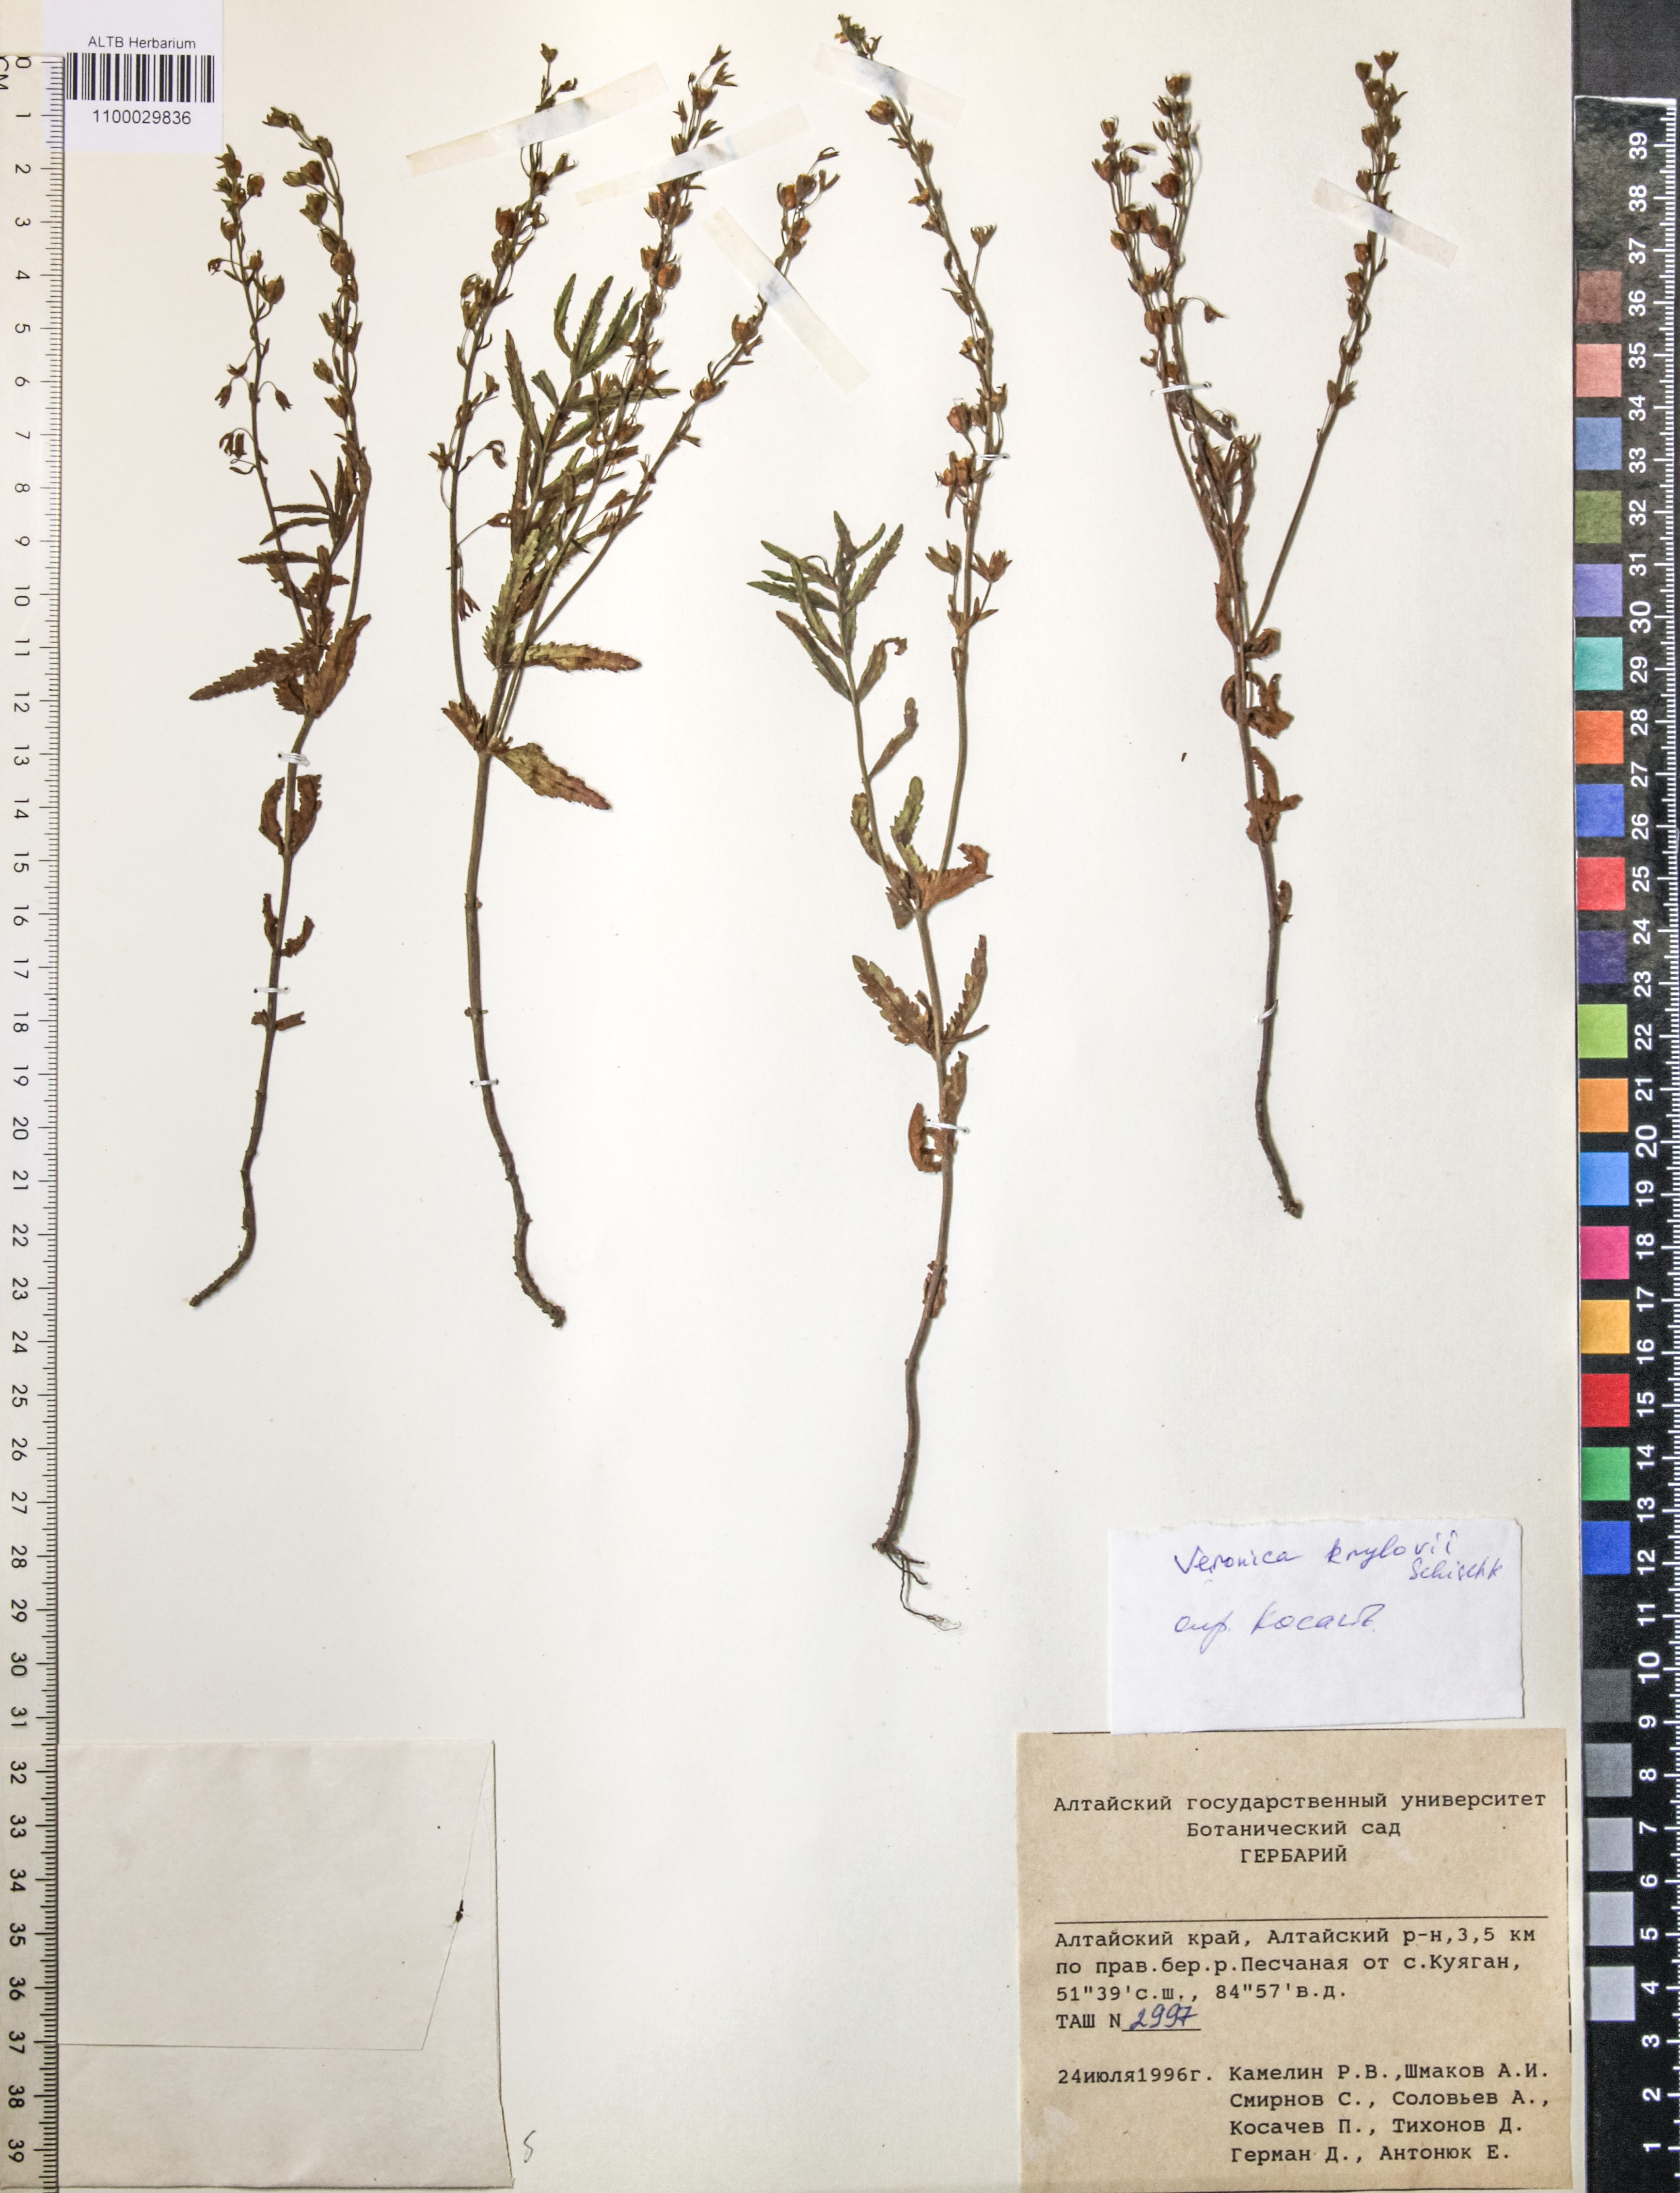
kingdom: Plantae
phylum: Tracheophyta
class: Magnoliopsida
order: Lamiales
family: Plantaginaceae
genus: Veronica
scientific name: Veronica krylovii
